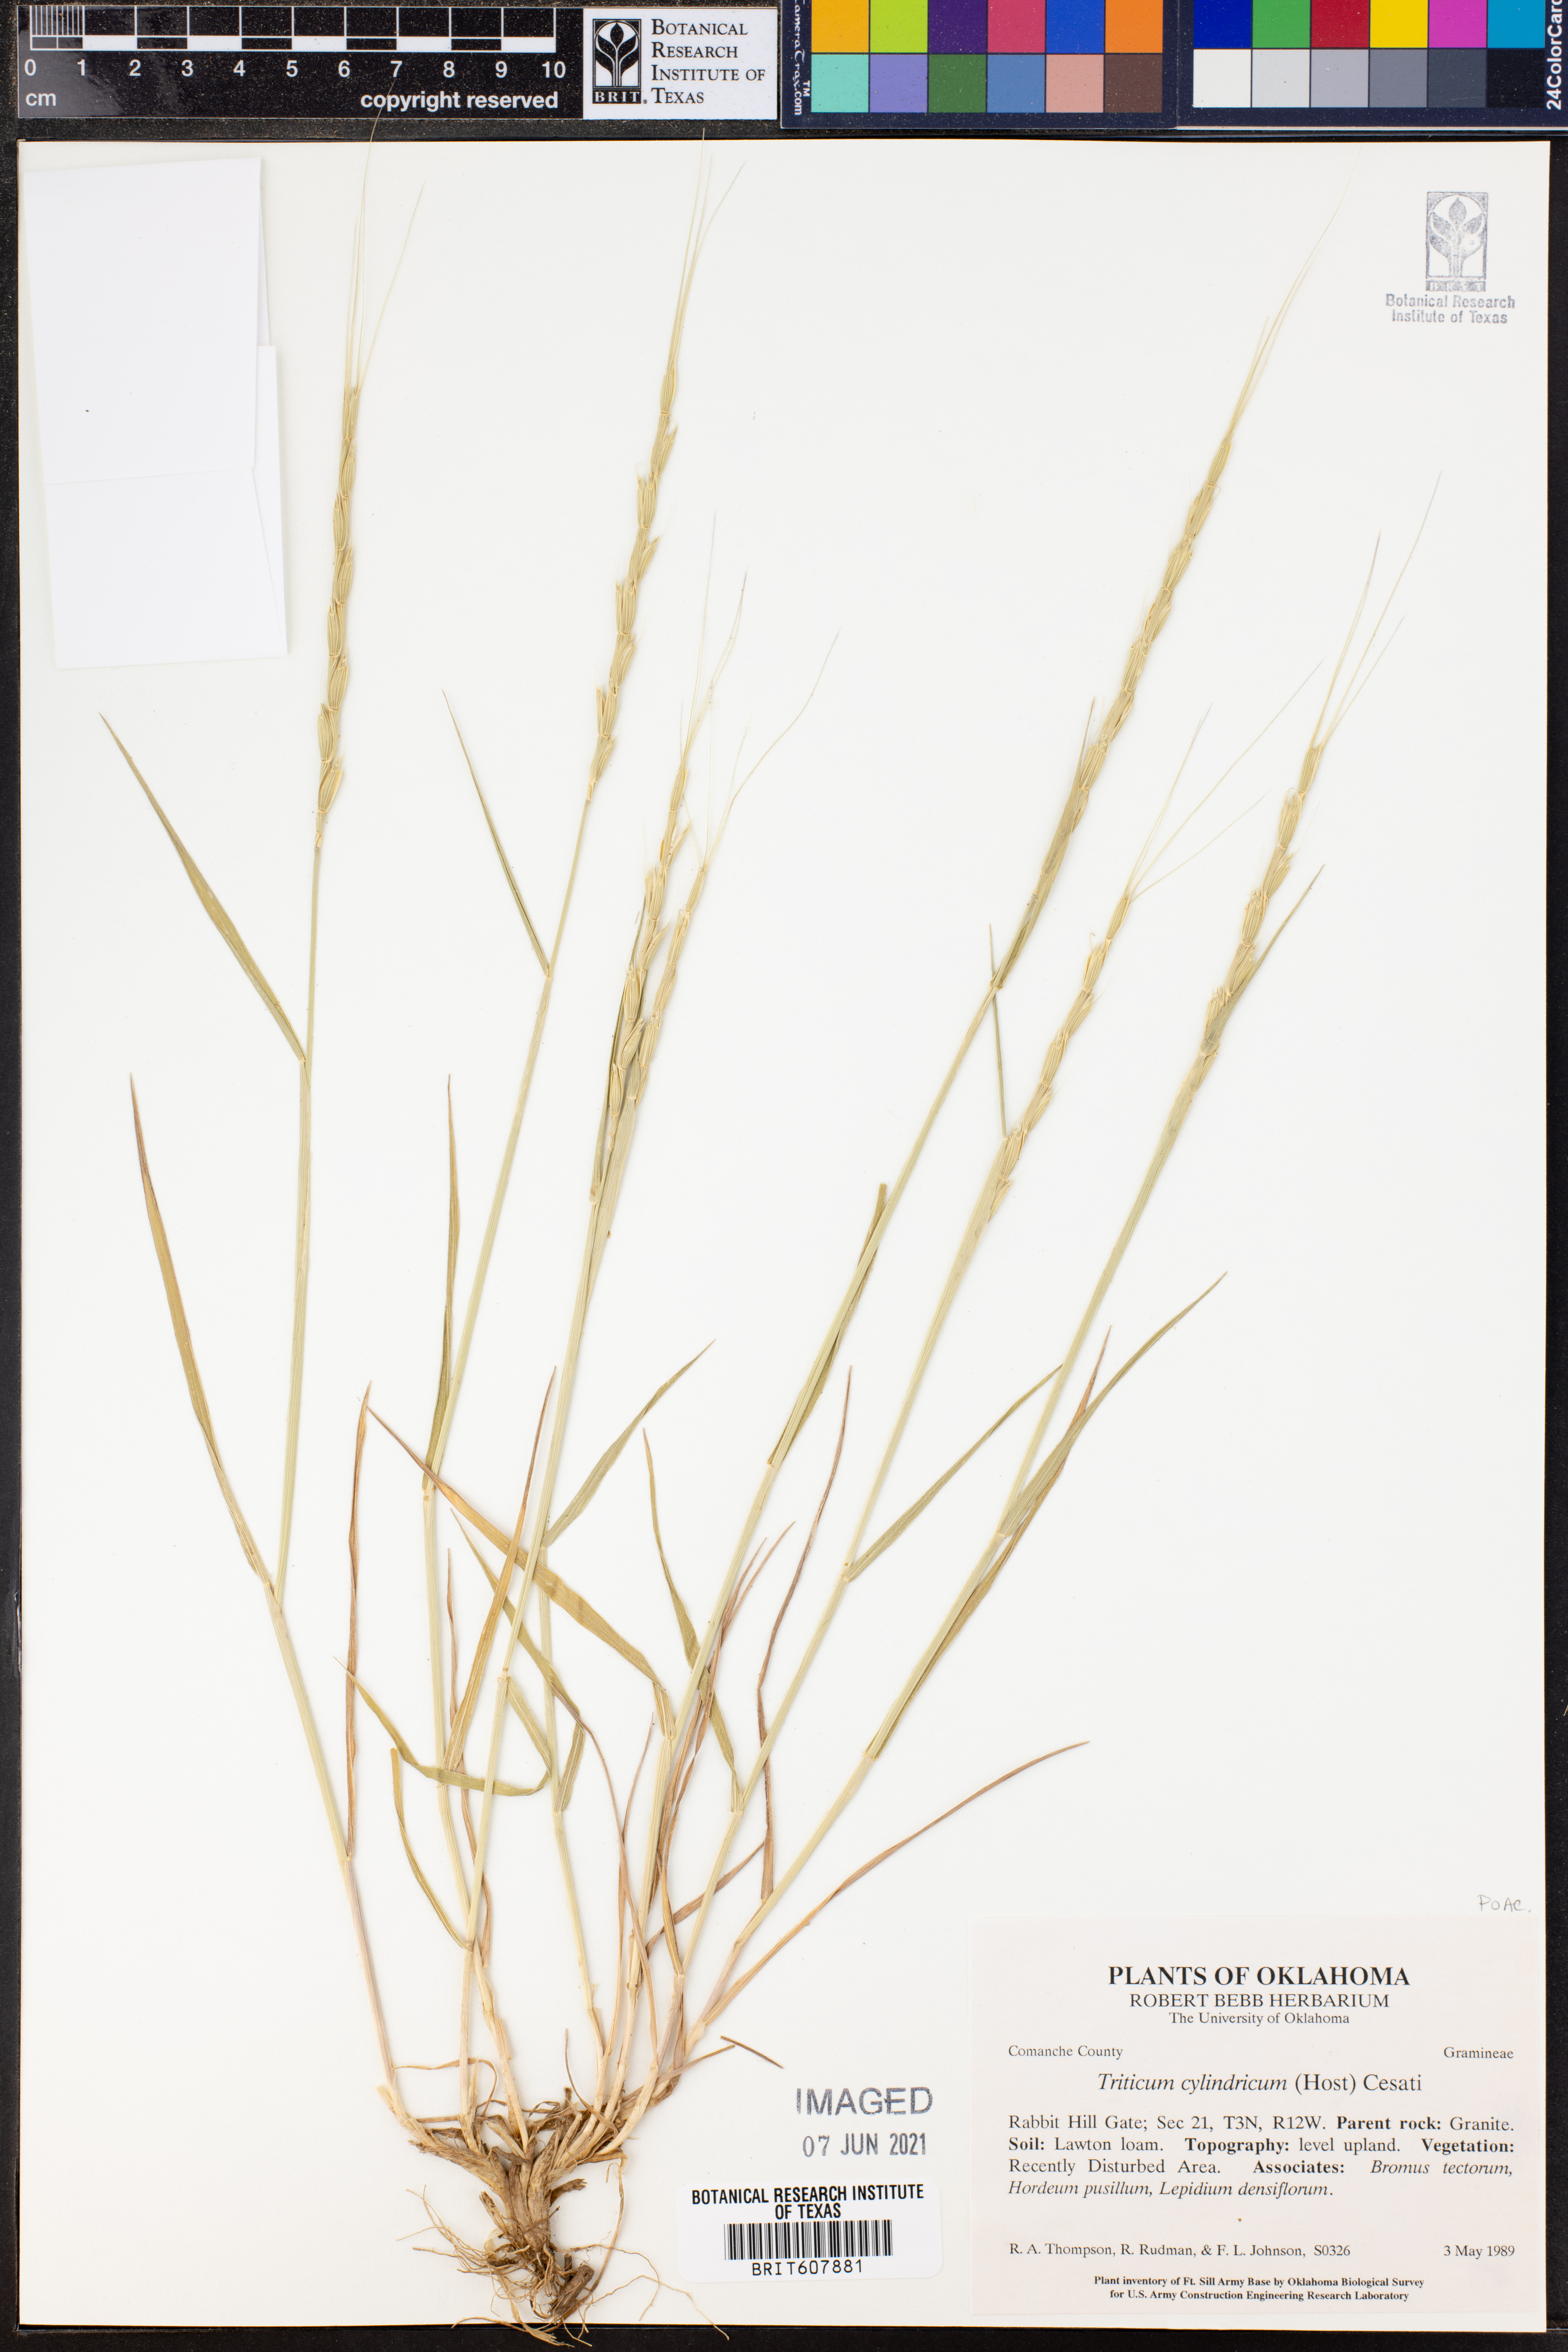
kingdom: Plantae
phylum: Tracheophyta
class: Liliopsida
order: Poales
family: Poaceae
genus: Aegilops
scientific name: Aegilops cylindrica
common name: Jointed goatgrass
